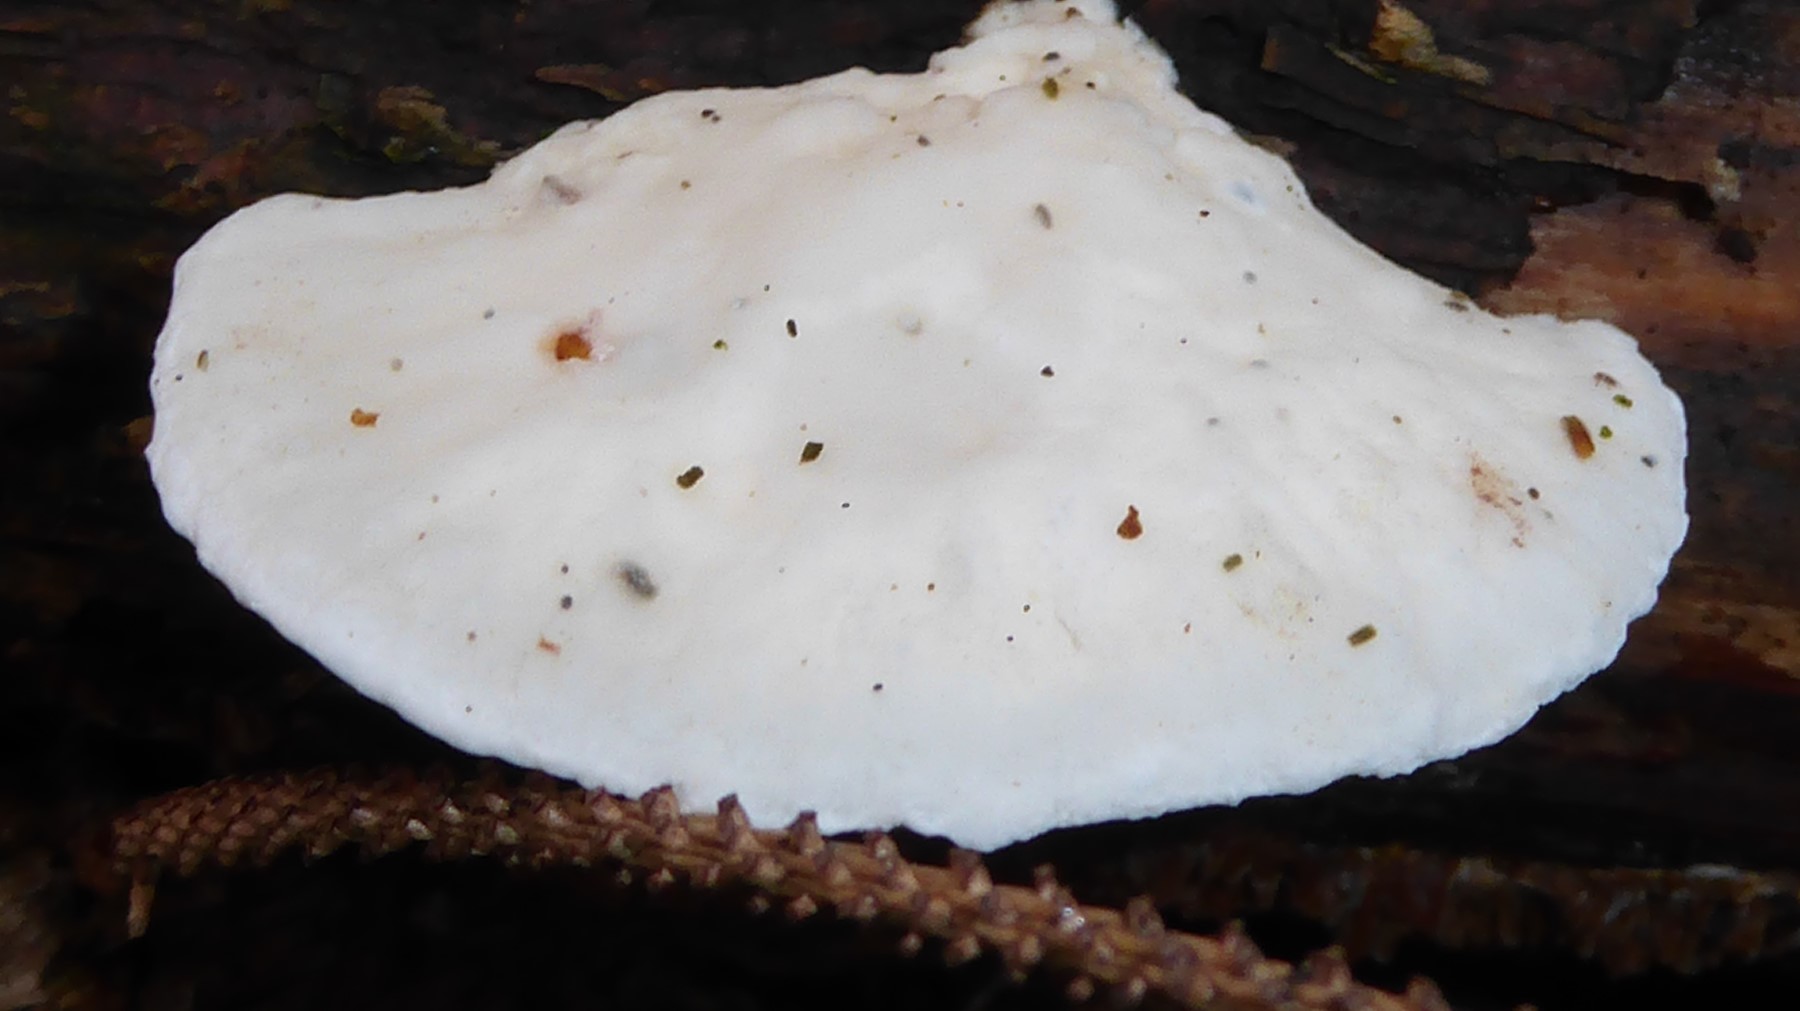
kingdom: Fungi
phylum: Basidiomycota
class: Agaricomycetes
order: Polyporales
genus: Amaropostia
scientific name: Amaropostia stiptica
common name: bitter kødporesvamp
